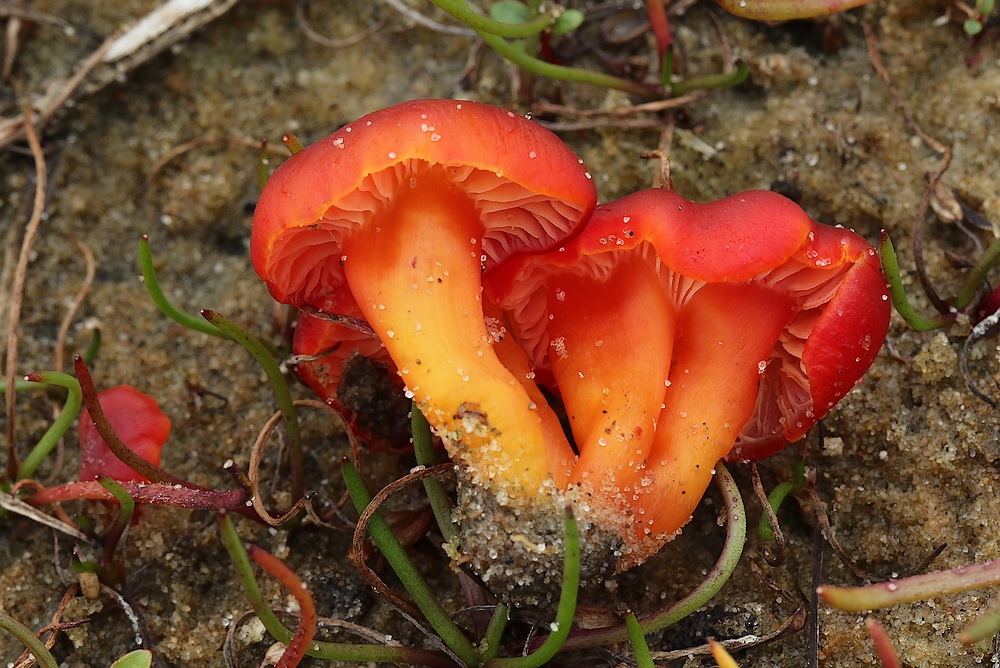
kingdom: Fungi
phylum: Basidiomycota
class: Agaricomycetes
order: Agaricales
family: Hygrophoraceae
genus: Hygrocybe
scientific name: Hygrocybe phaeococcinea
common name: sortdugget vokshat
